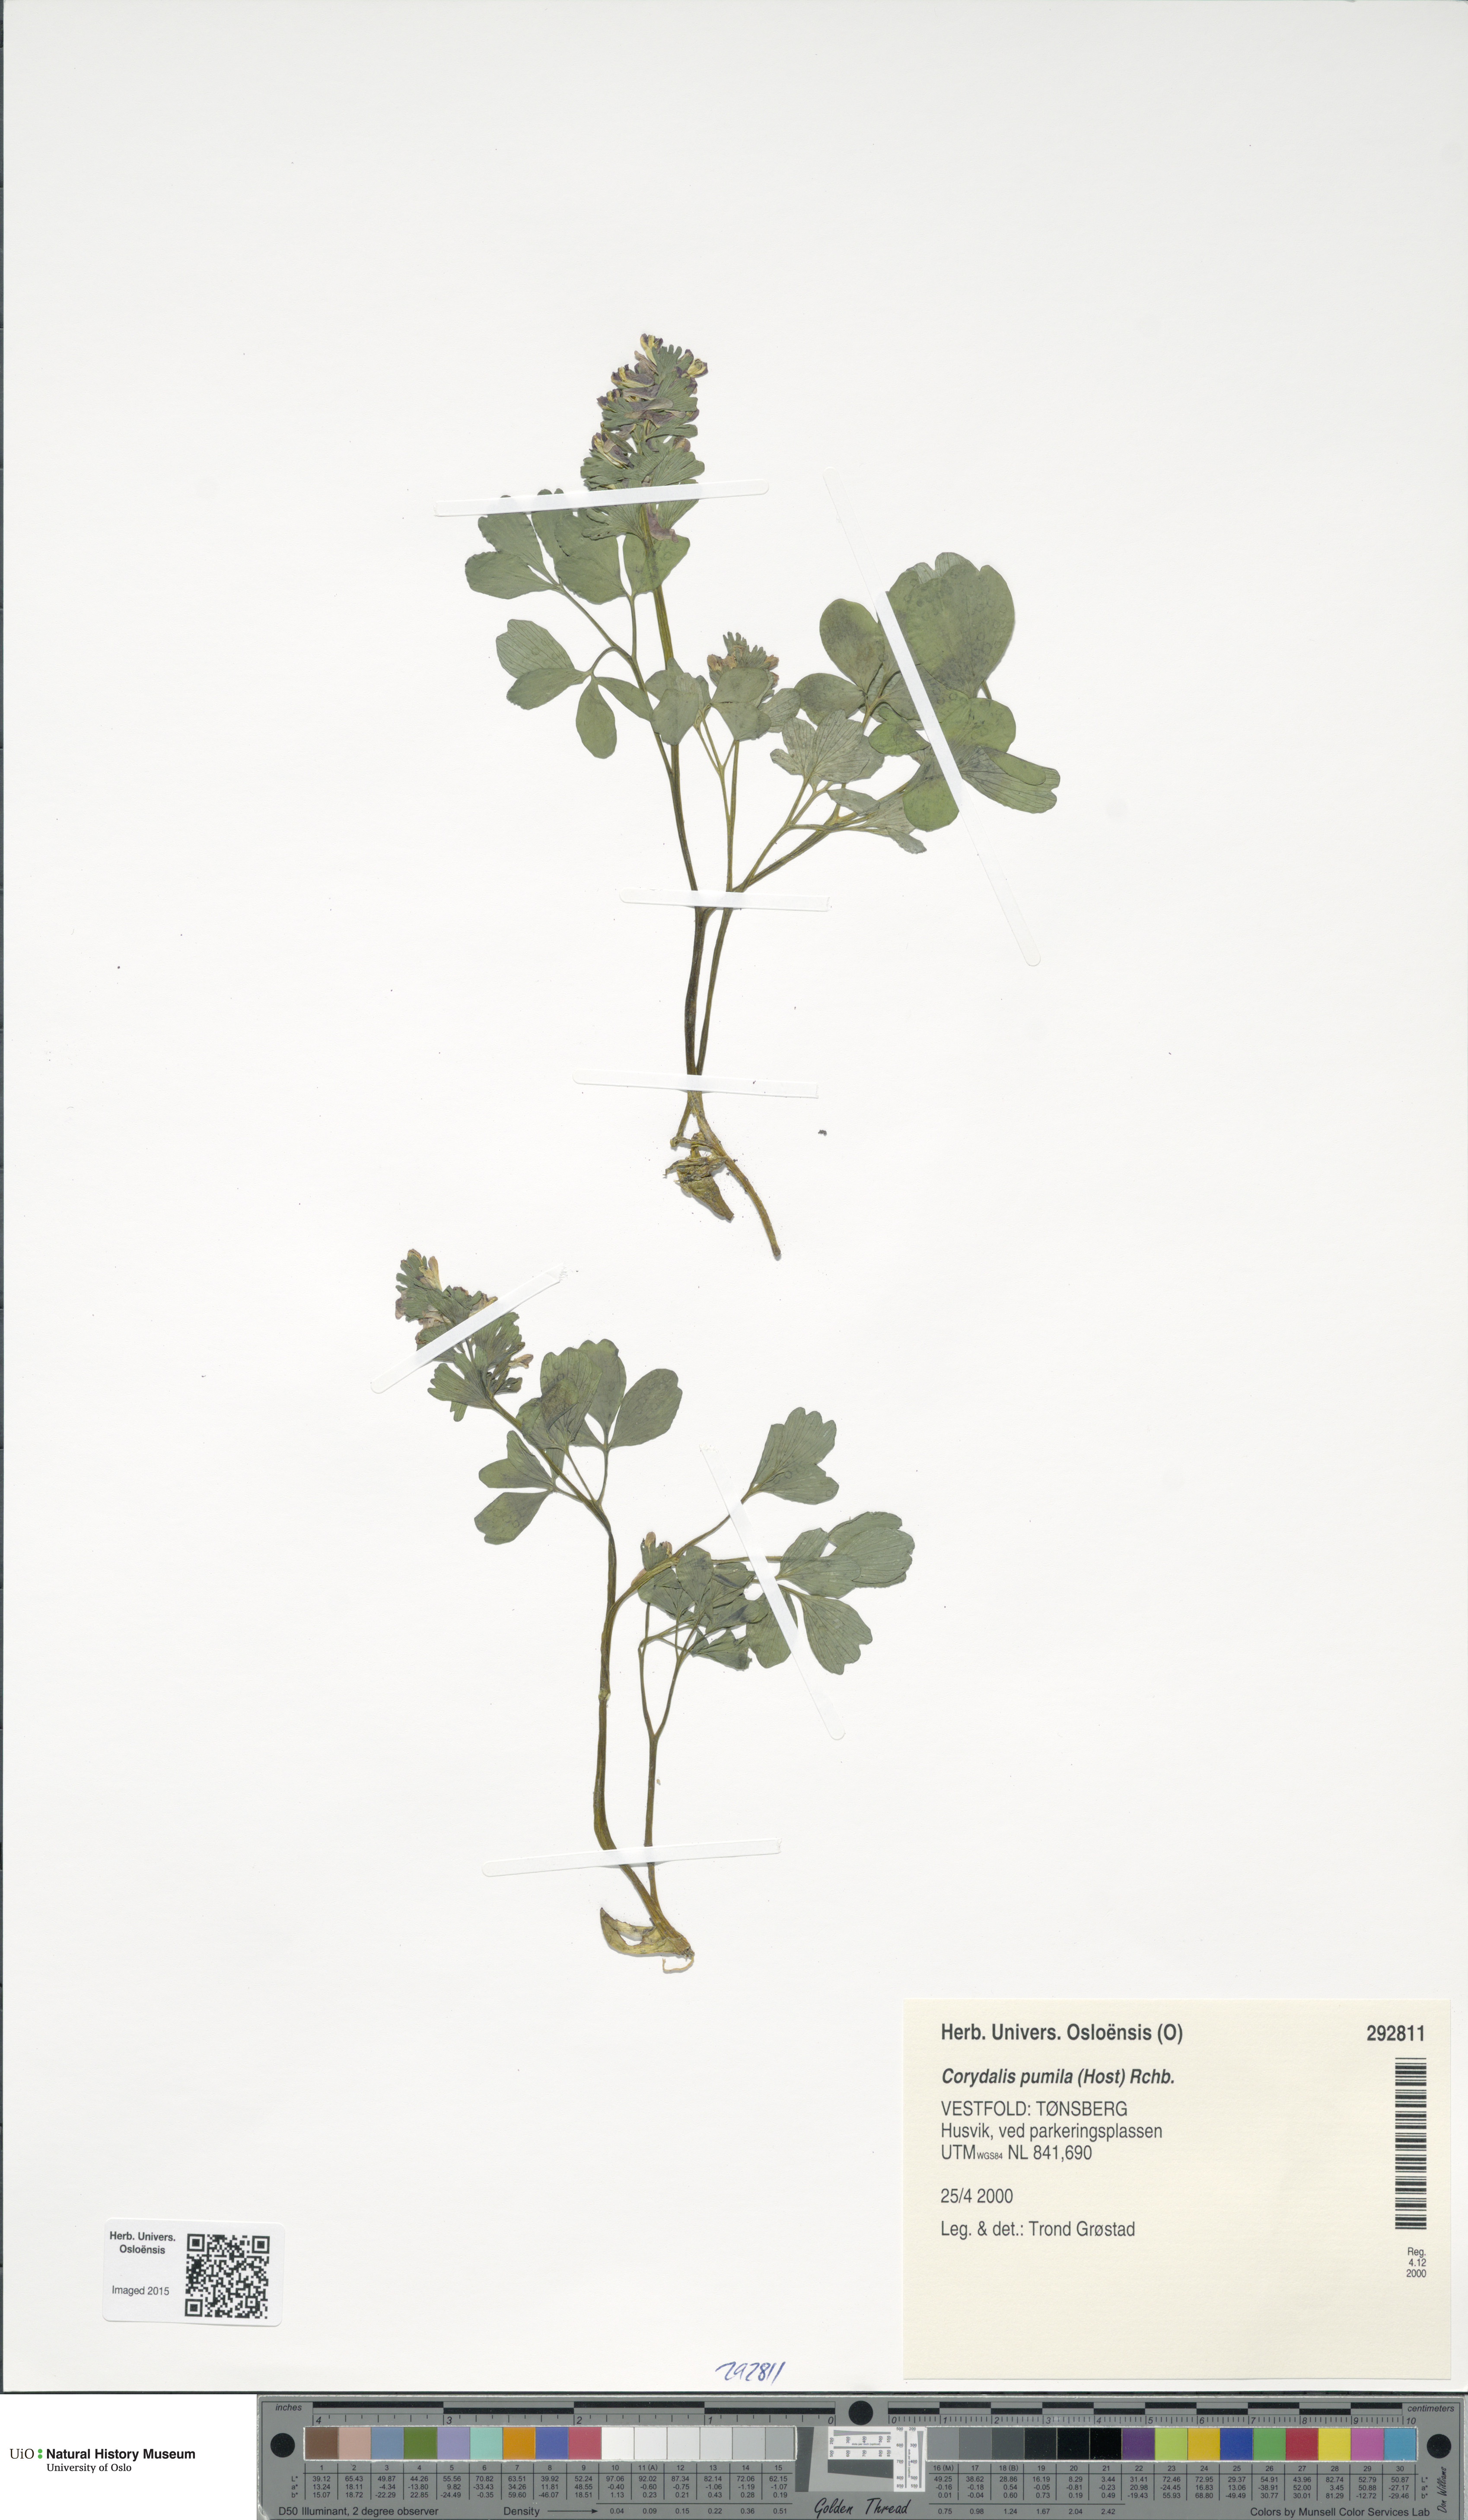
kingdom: Plantae
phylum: Tracheophyta
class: Magnoliopsida
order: Ranunculales
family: Papaveraceae
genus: Corydalis
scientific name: Corydalis pumila
